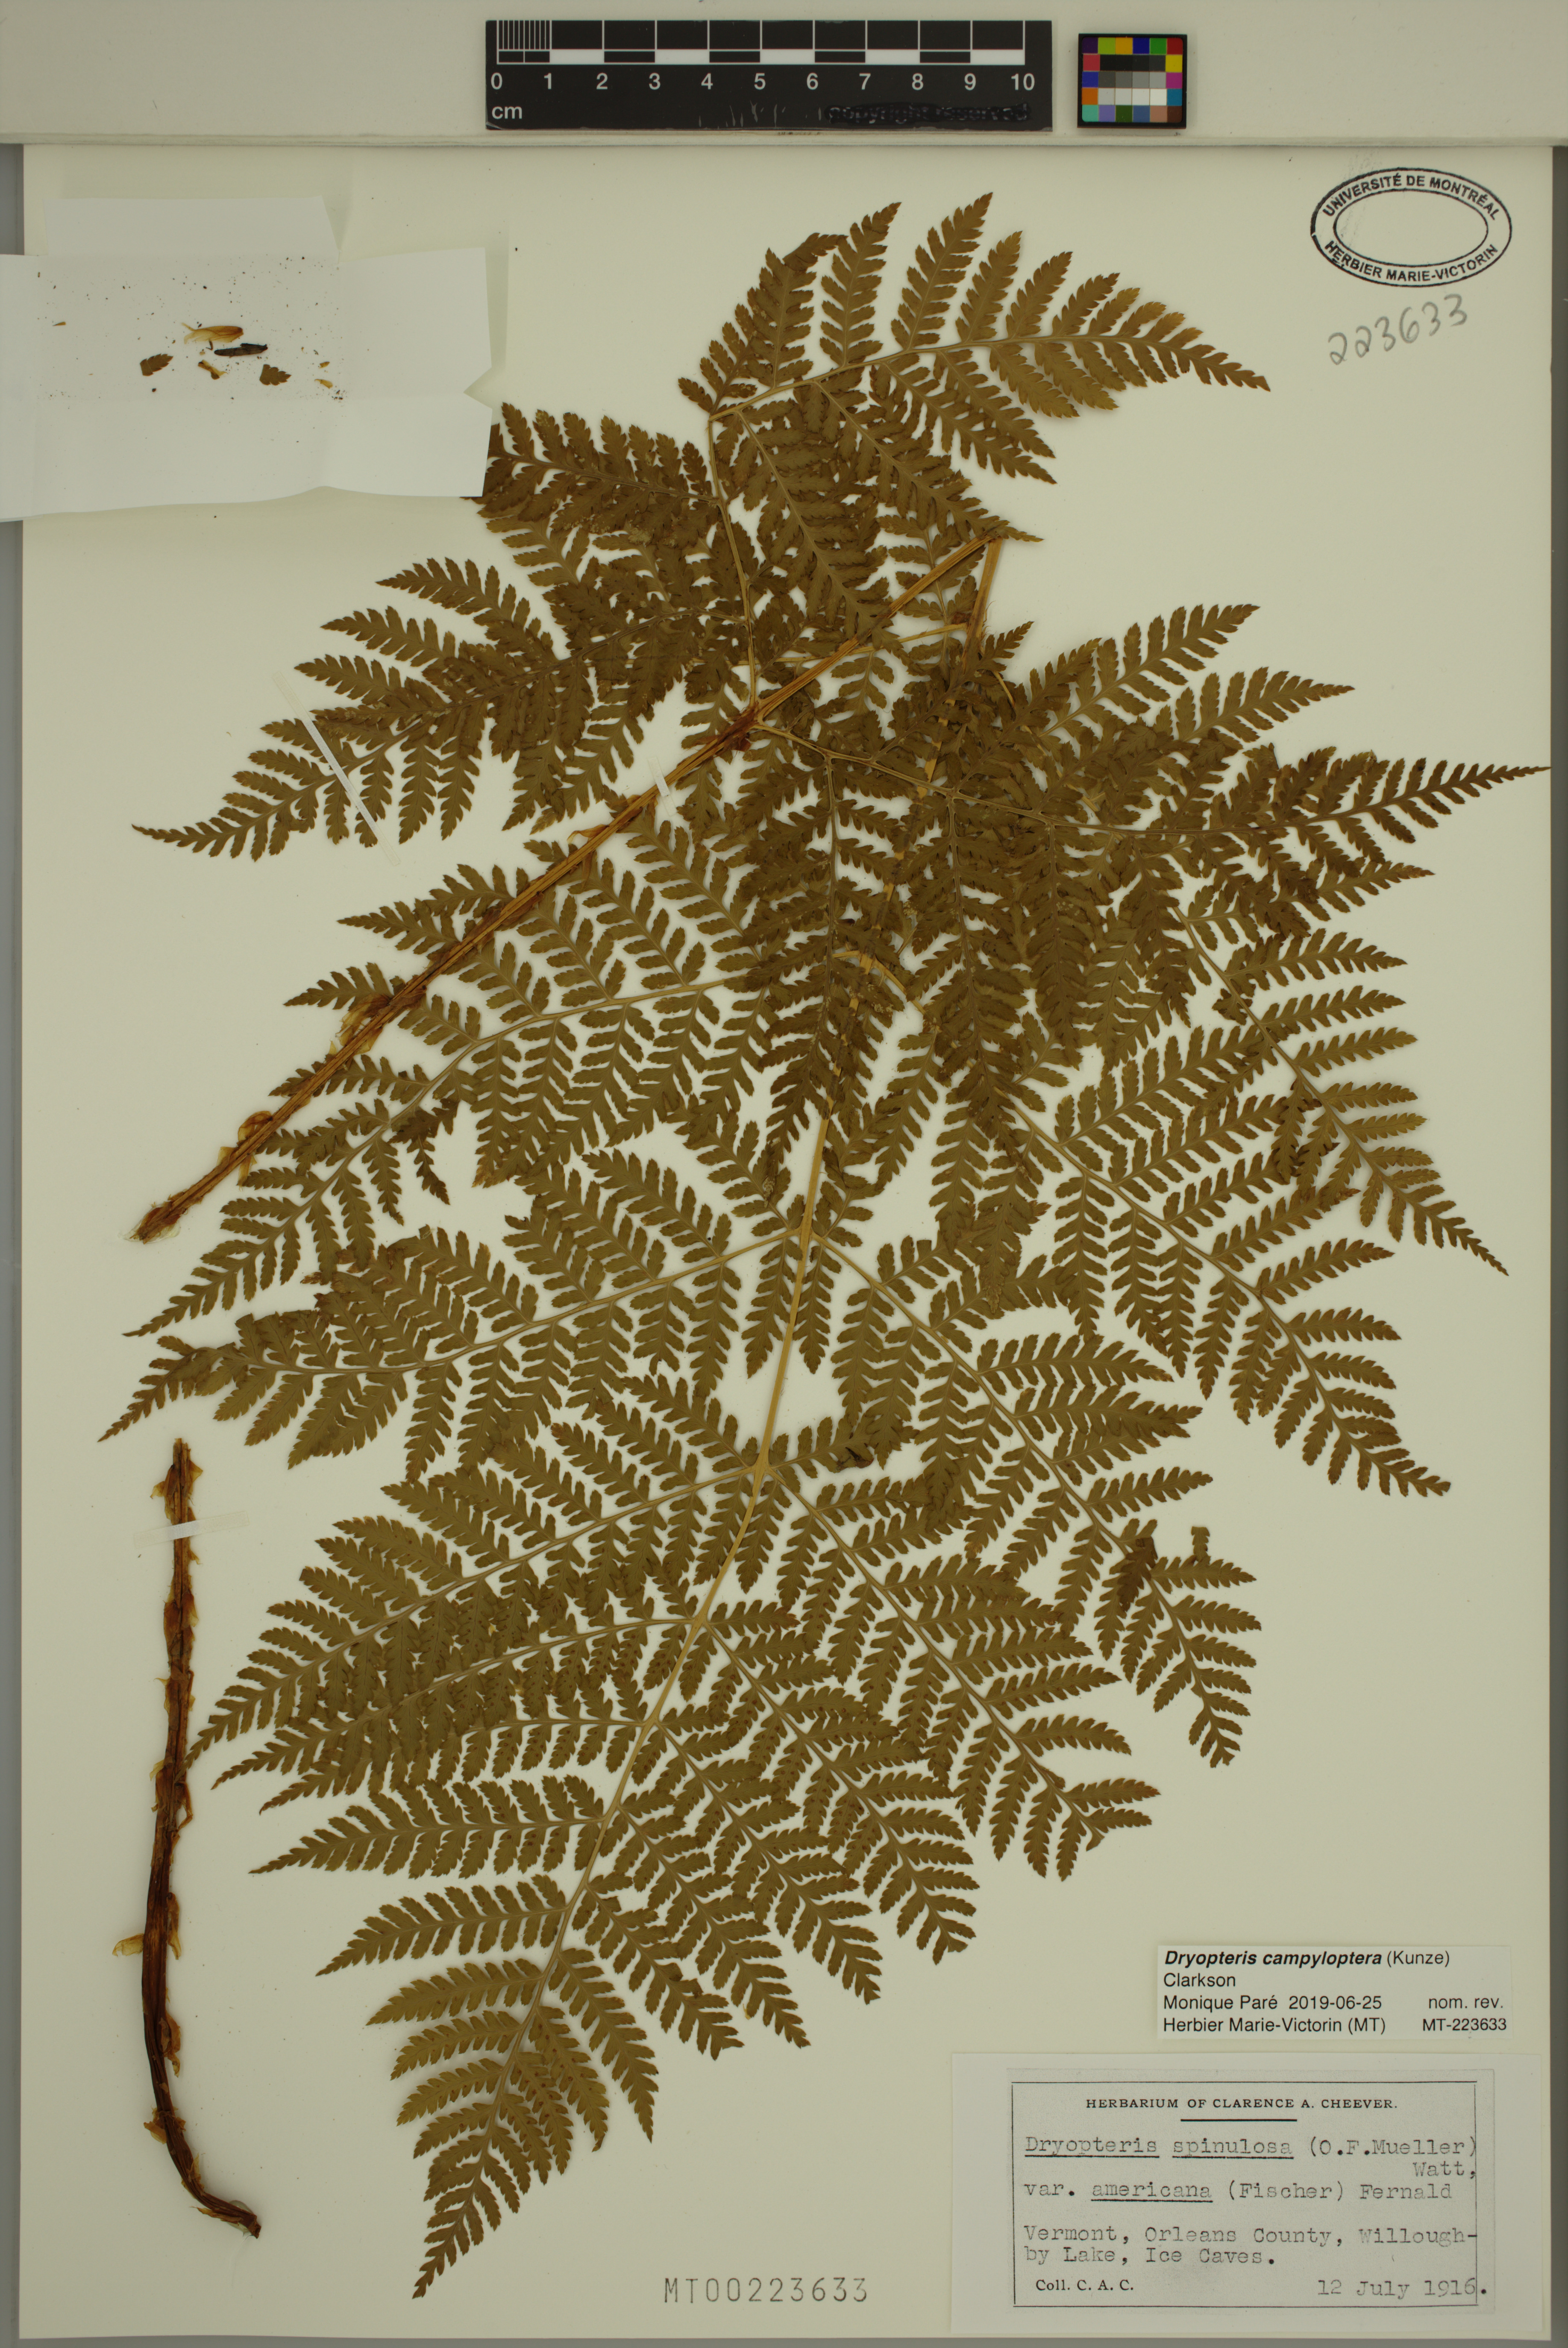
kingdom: Plantae
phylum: Tracheophyta
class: Polypodiopsida
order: Polypodiales
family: Dryopteridaceae
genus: Dryopteris
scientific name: Dryopteris campyloptera
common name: Mountain wood fern
